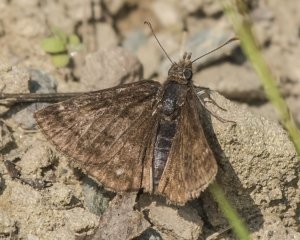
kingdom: Animalia
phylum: Arthropoda
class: Insecta
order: Lepidoptera
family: Hesperiidae
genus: Erynnis
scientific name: Erynnis icelus
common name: Dreamy Duskywing
